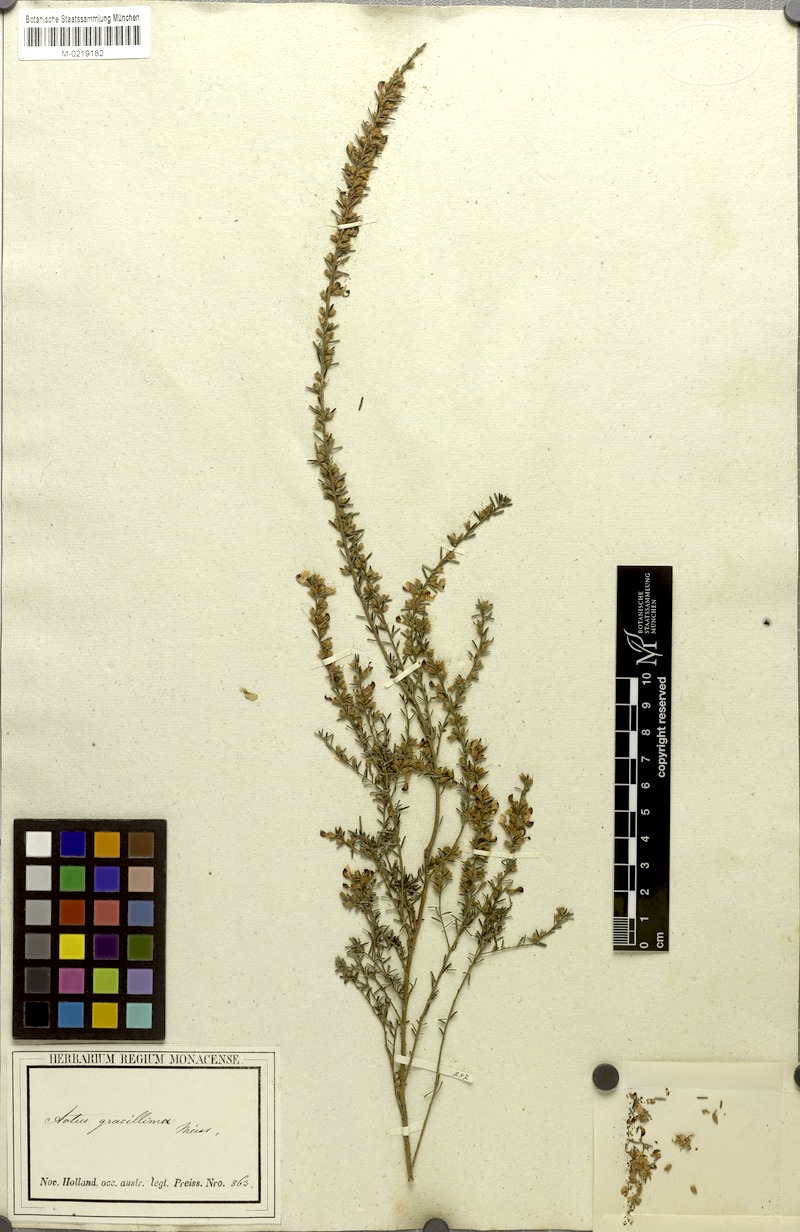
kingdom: Plantae
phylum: Tracheophyta
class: Magnoliopsida
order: Fabales
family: Fabaceae
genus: Aotus
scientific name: Aotus gracillima
